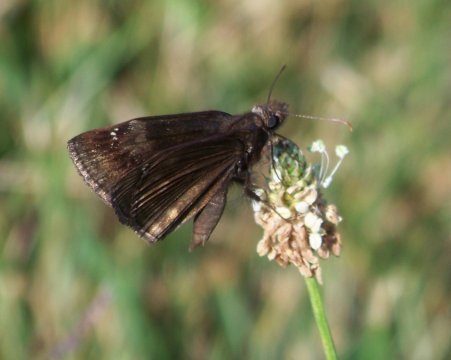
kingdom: Animalia
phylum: Arthropoda
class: Insecta
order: Lepidoptera
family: Hesperiidae
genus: Gesta
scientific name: Gesta
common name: Wild Indigo Duskywing
